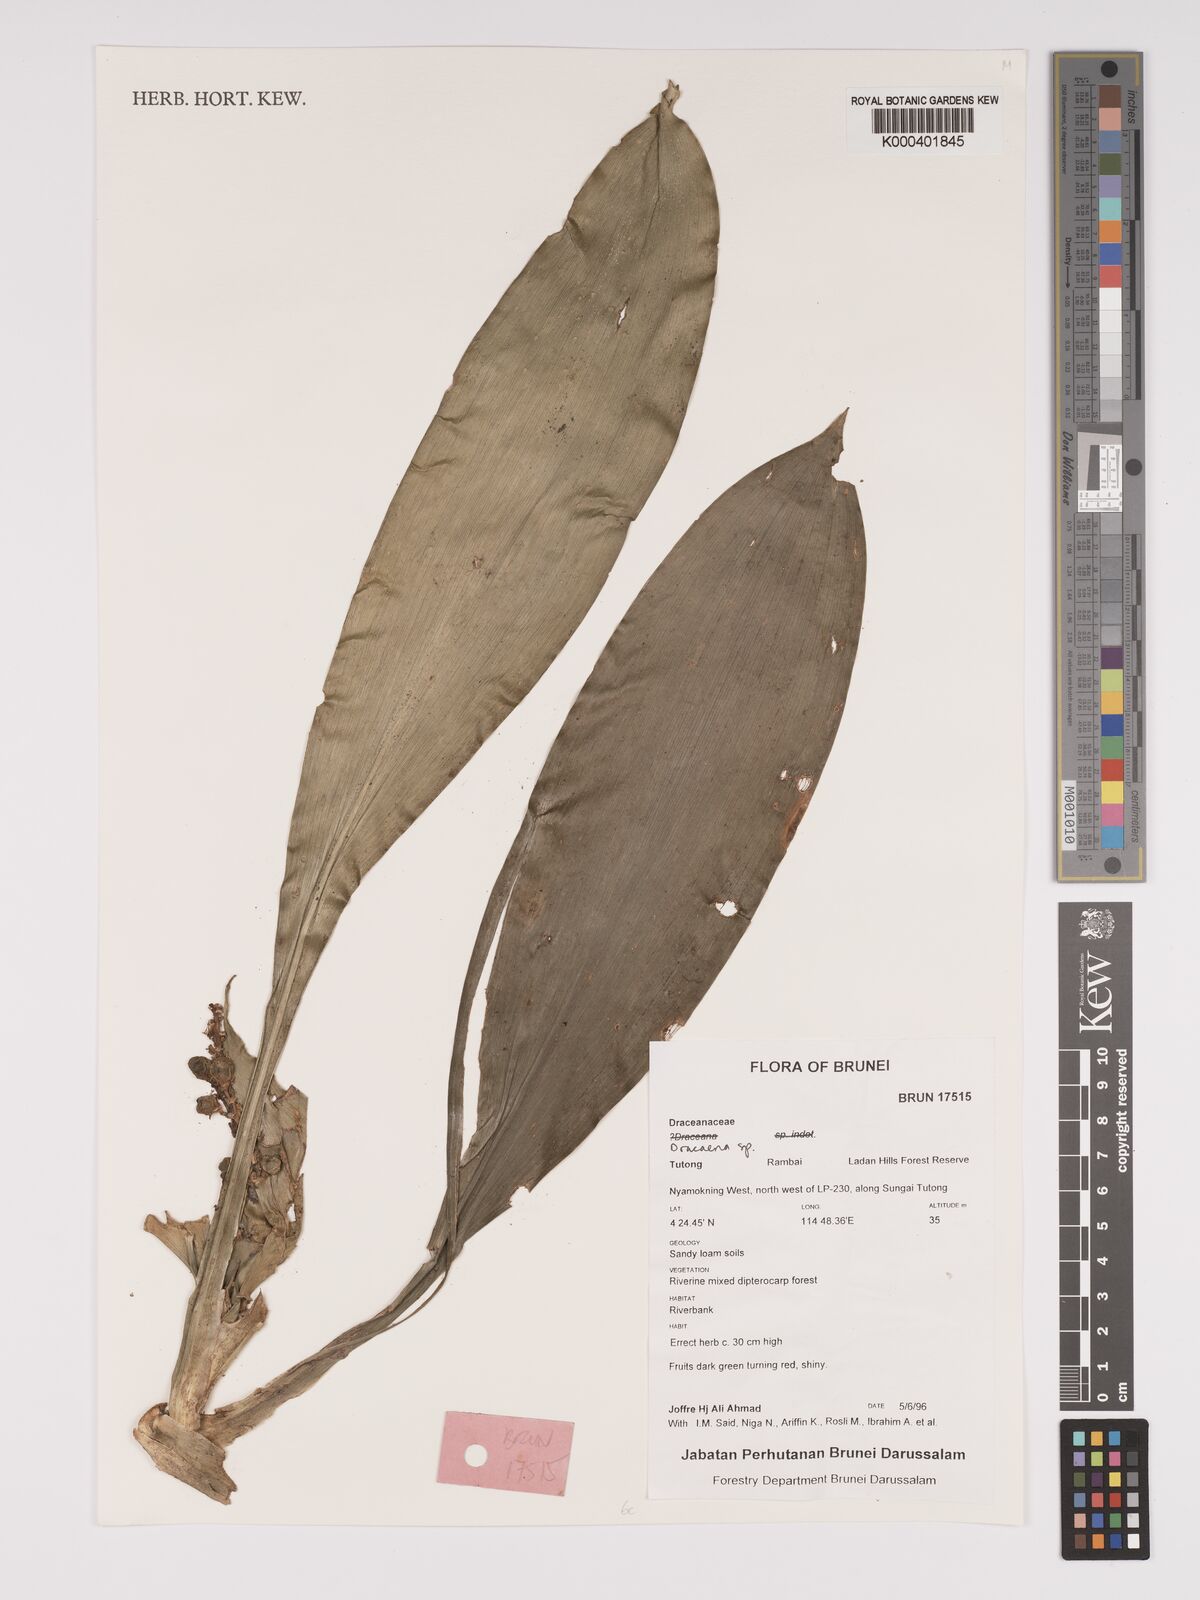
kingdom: Plantae
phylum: Tracheophyta
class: Liliopsida
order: Asparagales
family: Asparagaceae
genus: Dracaena
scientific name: Dracaena
